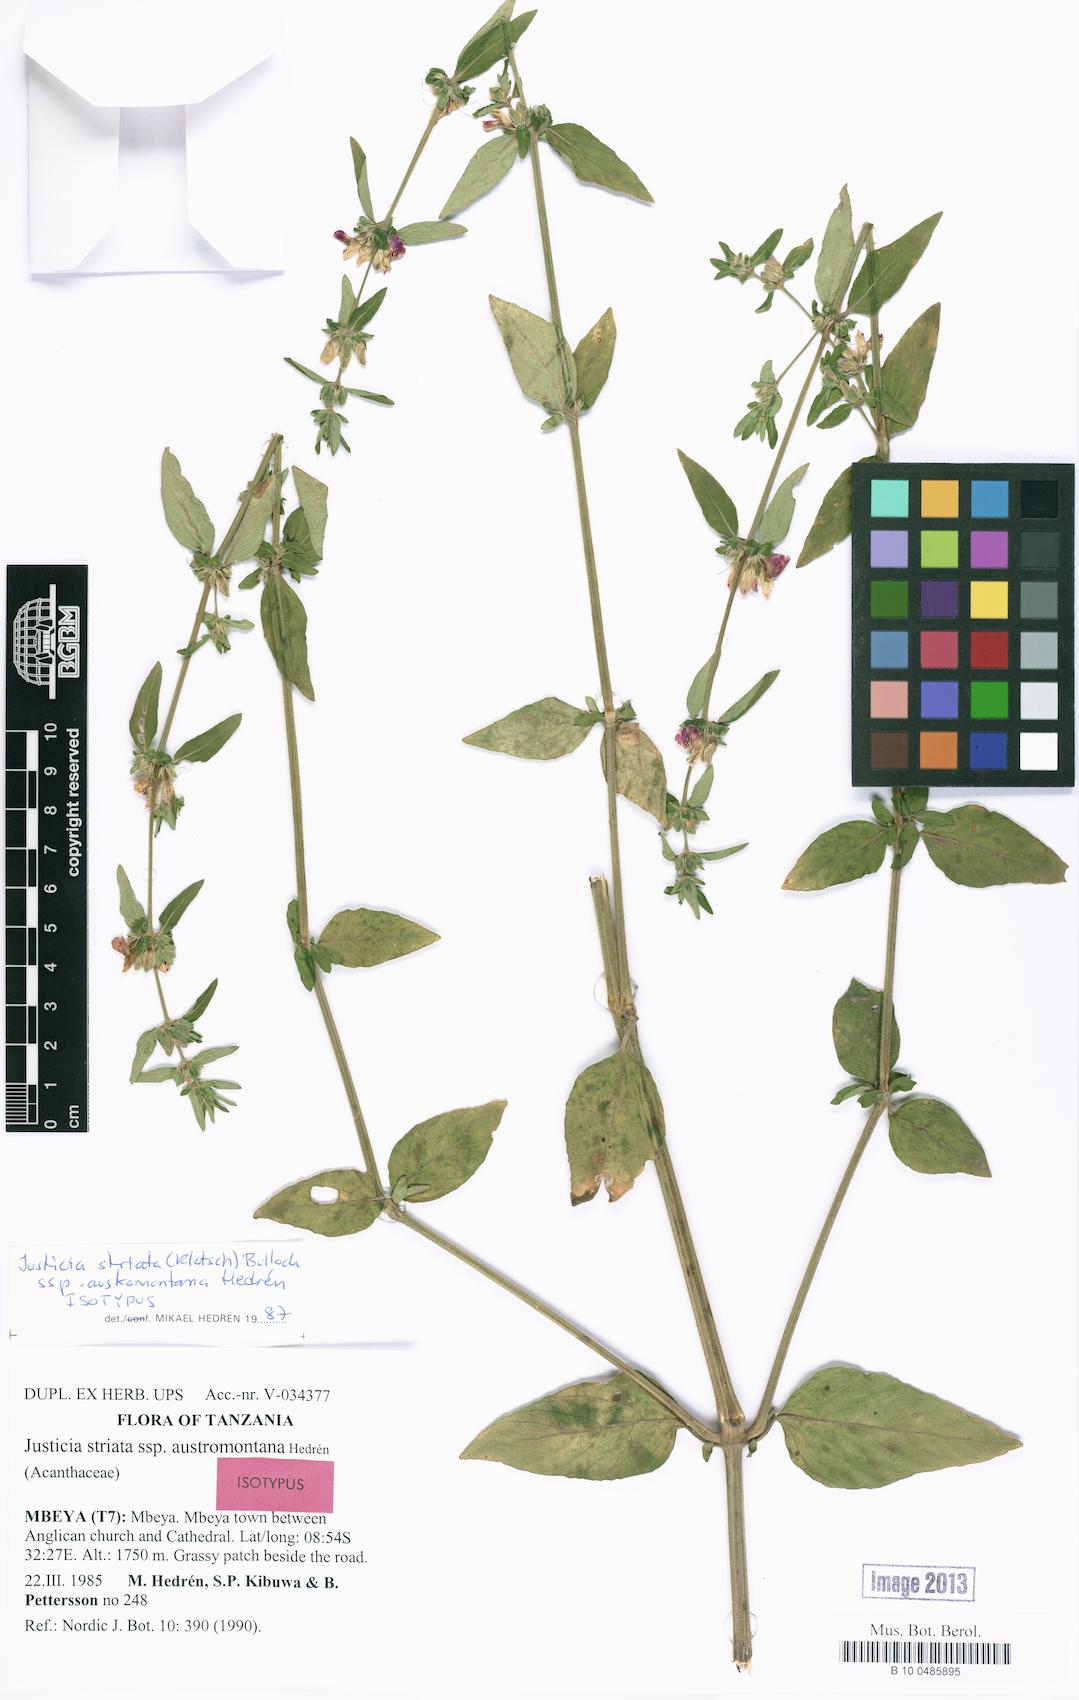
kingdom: Plantae
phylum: Tracheophyta
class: Magnoliopsida
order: Lamiales
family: Acanthaceae
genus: Justicia
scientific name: Justicia striata
